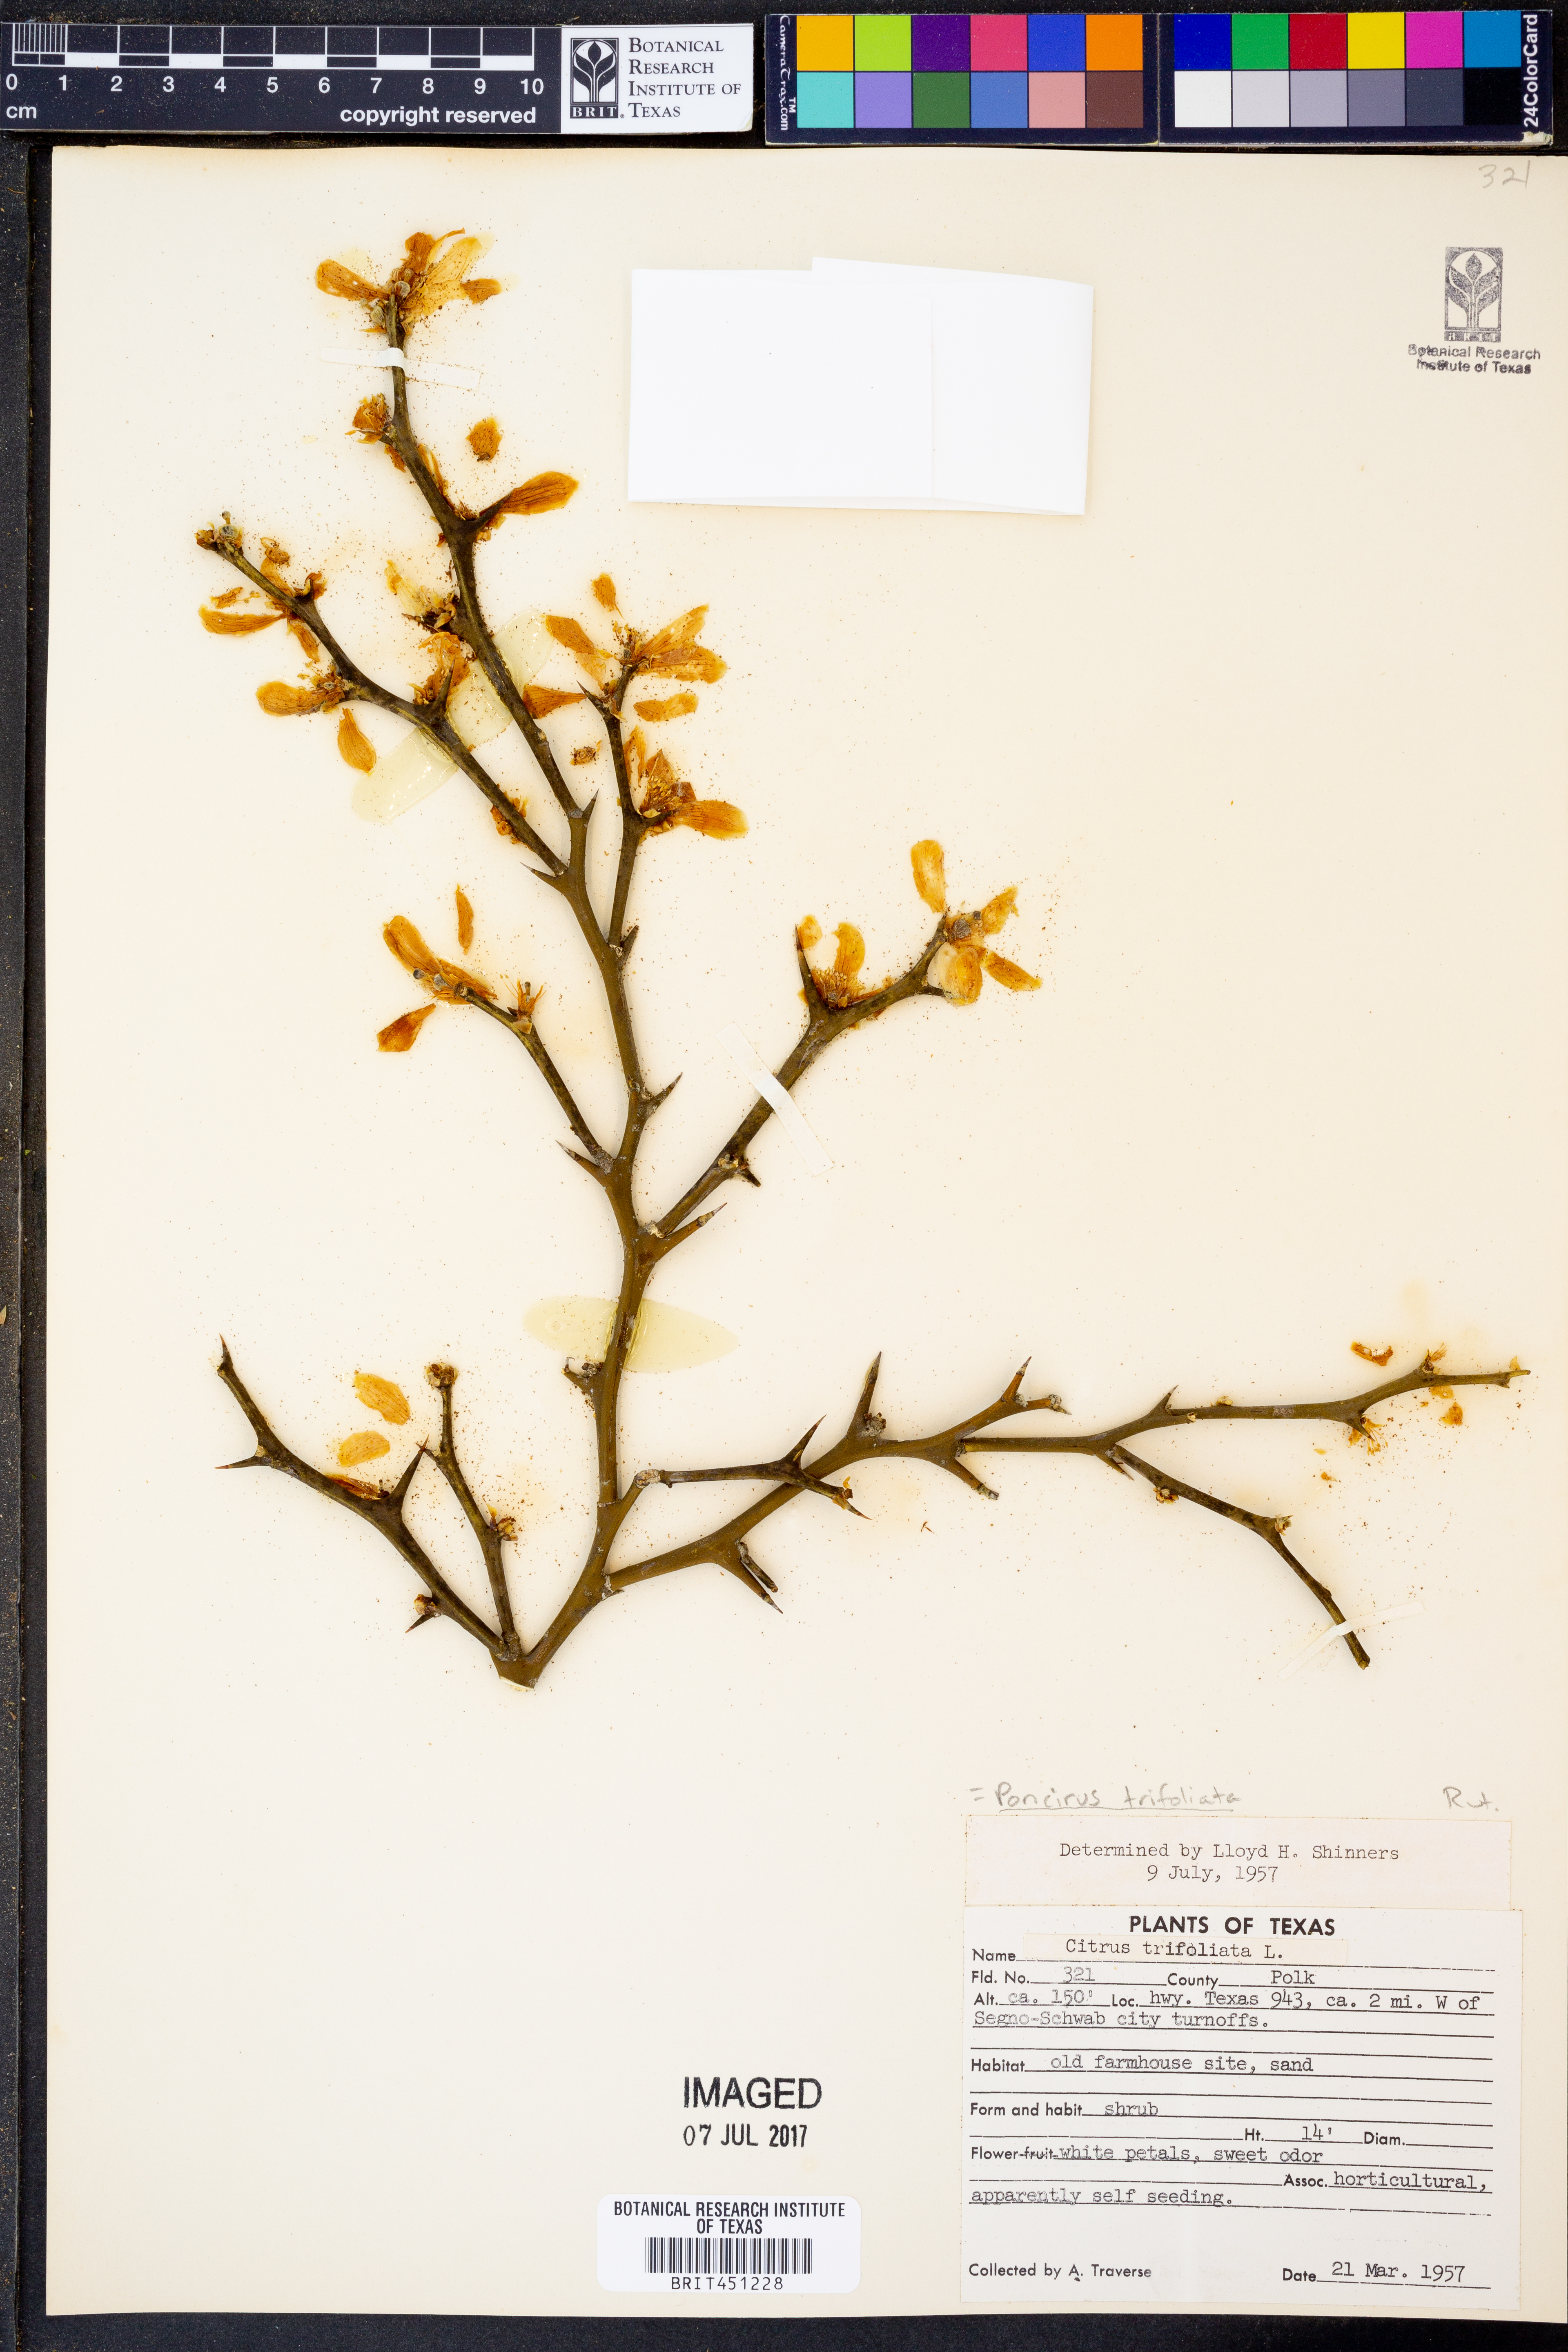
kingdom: Plantae
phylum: Tracheophyta
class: Magnoliopsida
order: Sapindales
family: Rutaceae
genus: Citrus
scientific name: Citrus trifoliata
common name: Japanese bitter-orange
